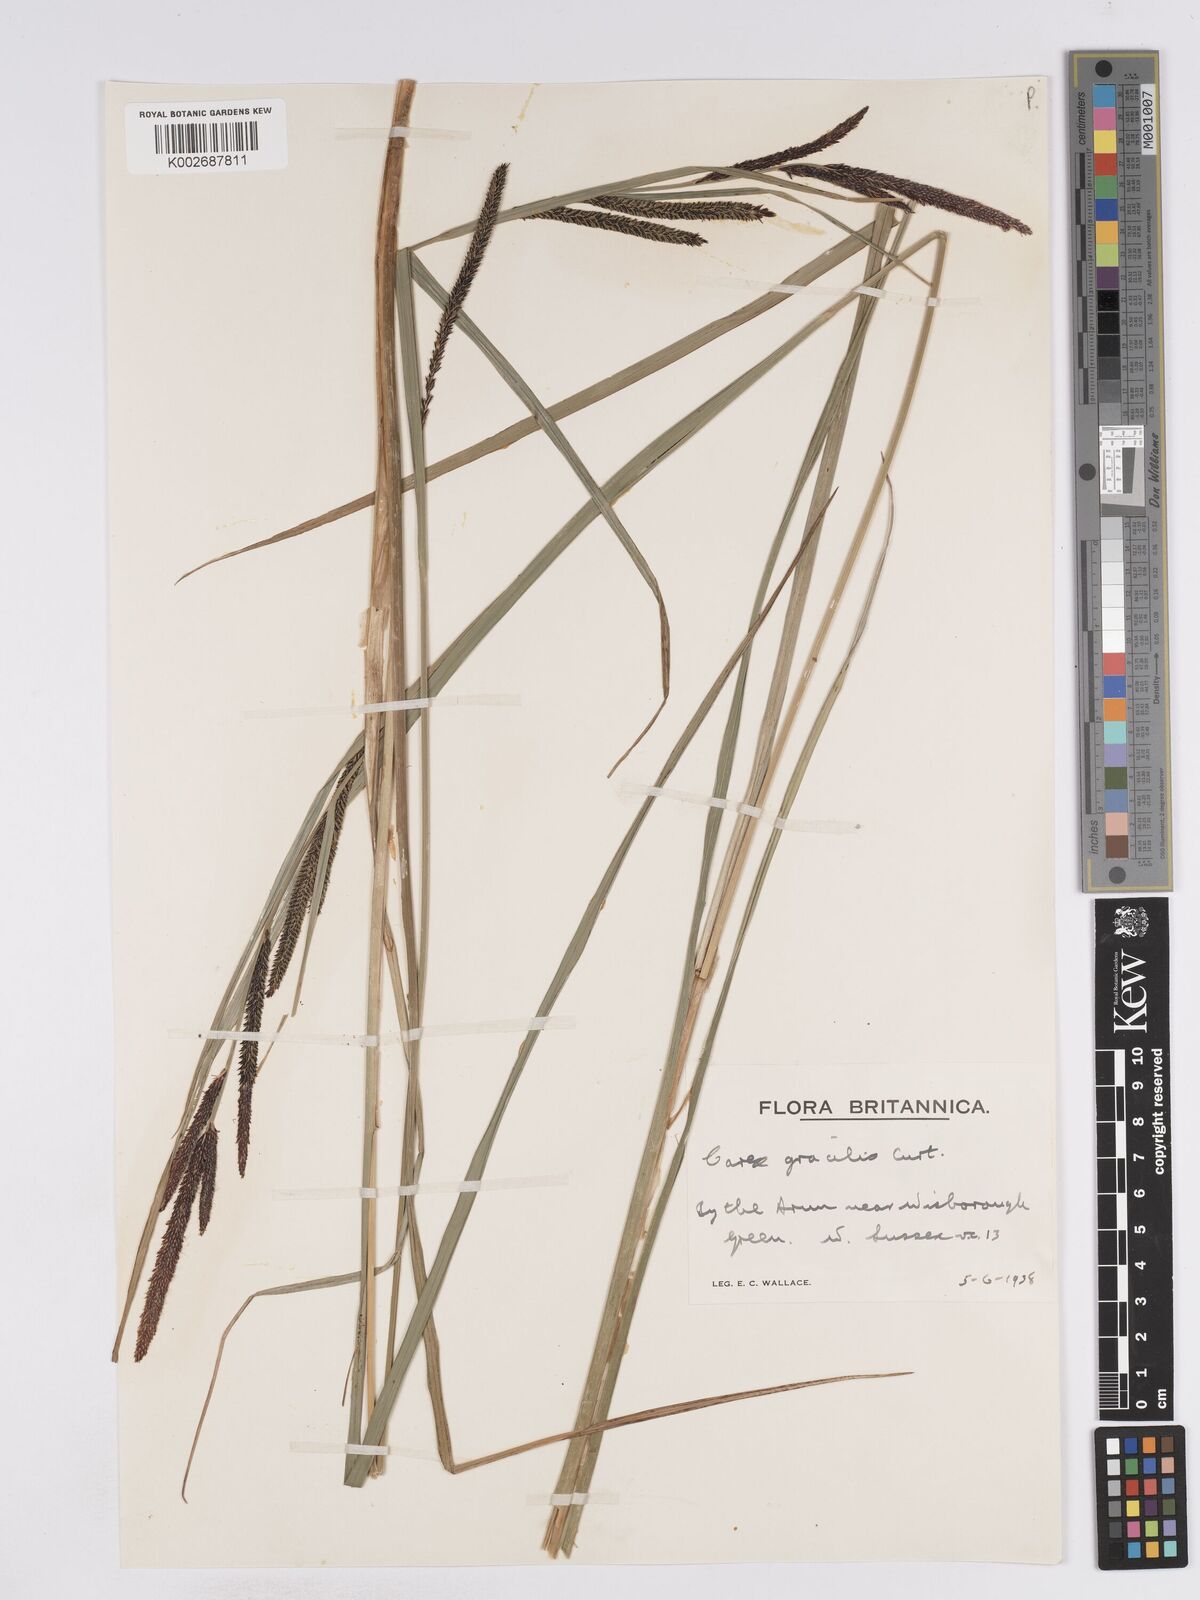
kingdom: Plantae
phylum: Tracheophyta
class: Liliopsida
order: Poales
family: Cyperaceae
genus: Carex
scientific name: Carex acuta
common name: Slender tufted-sedge
